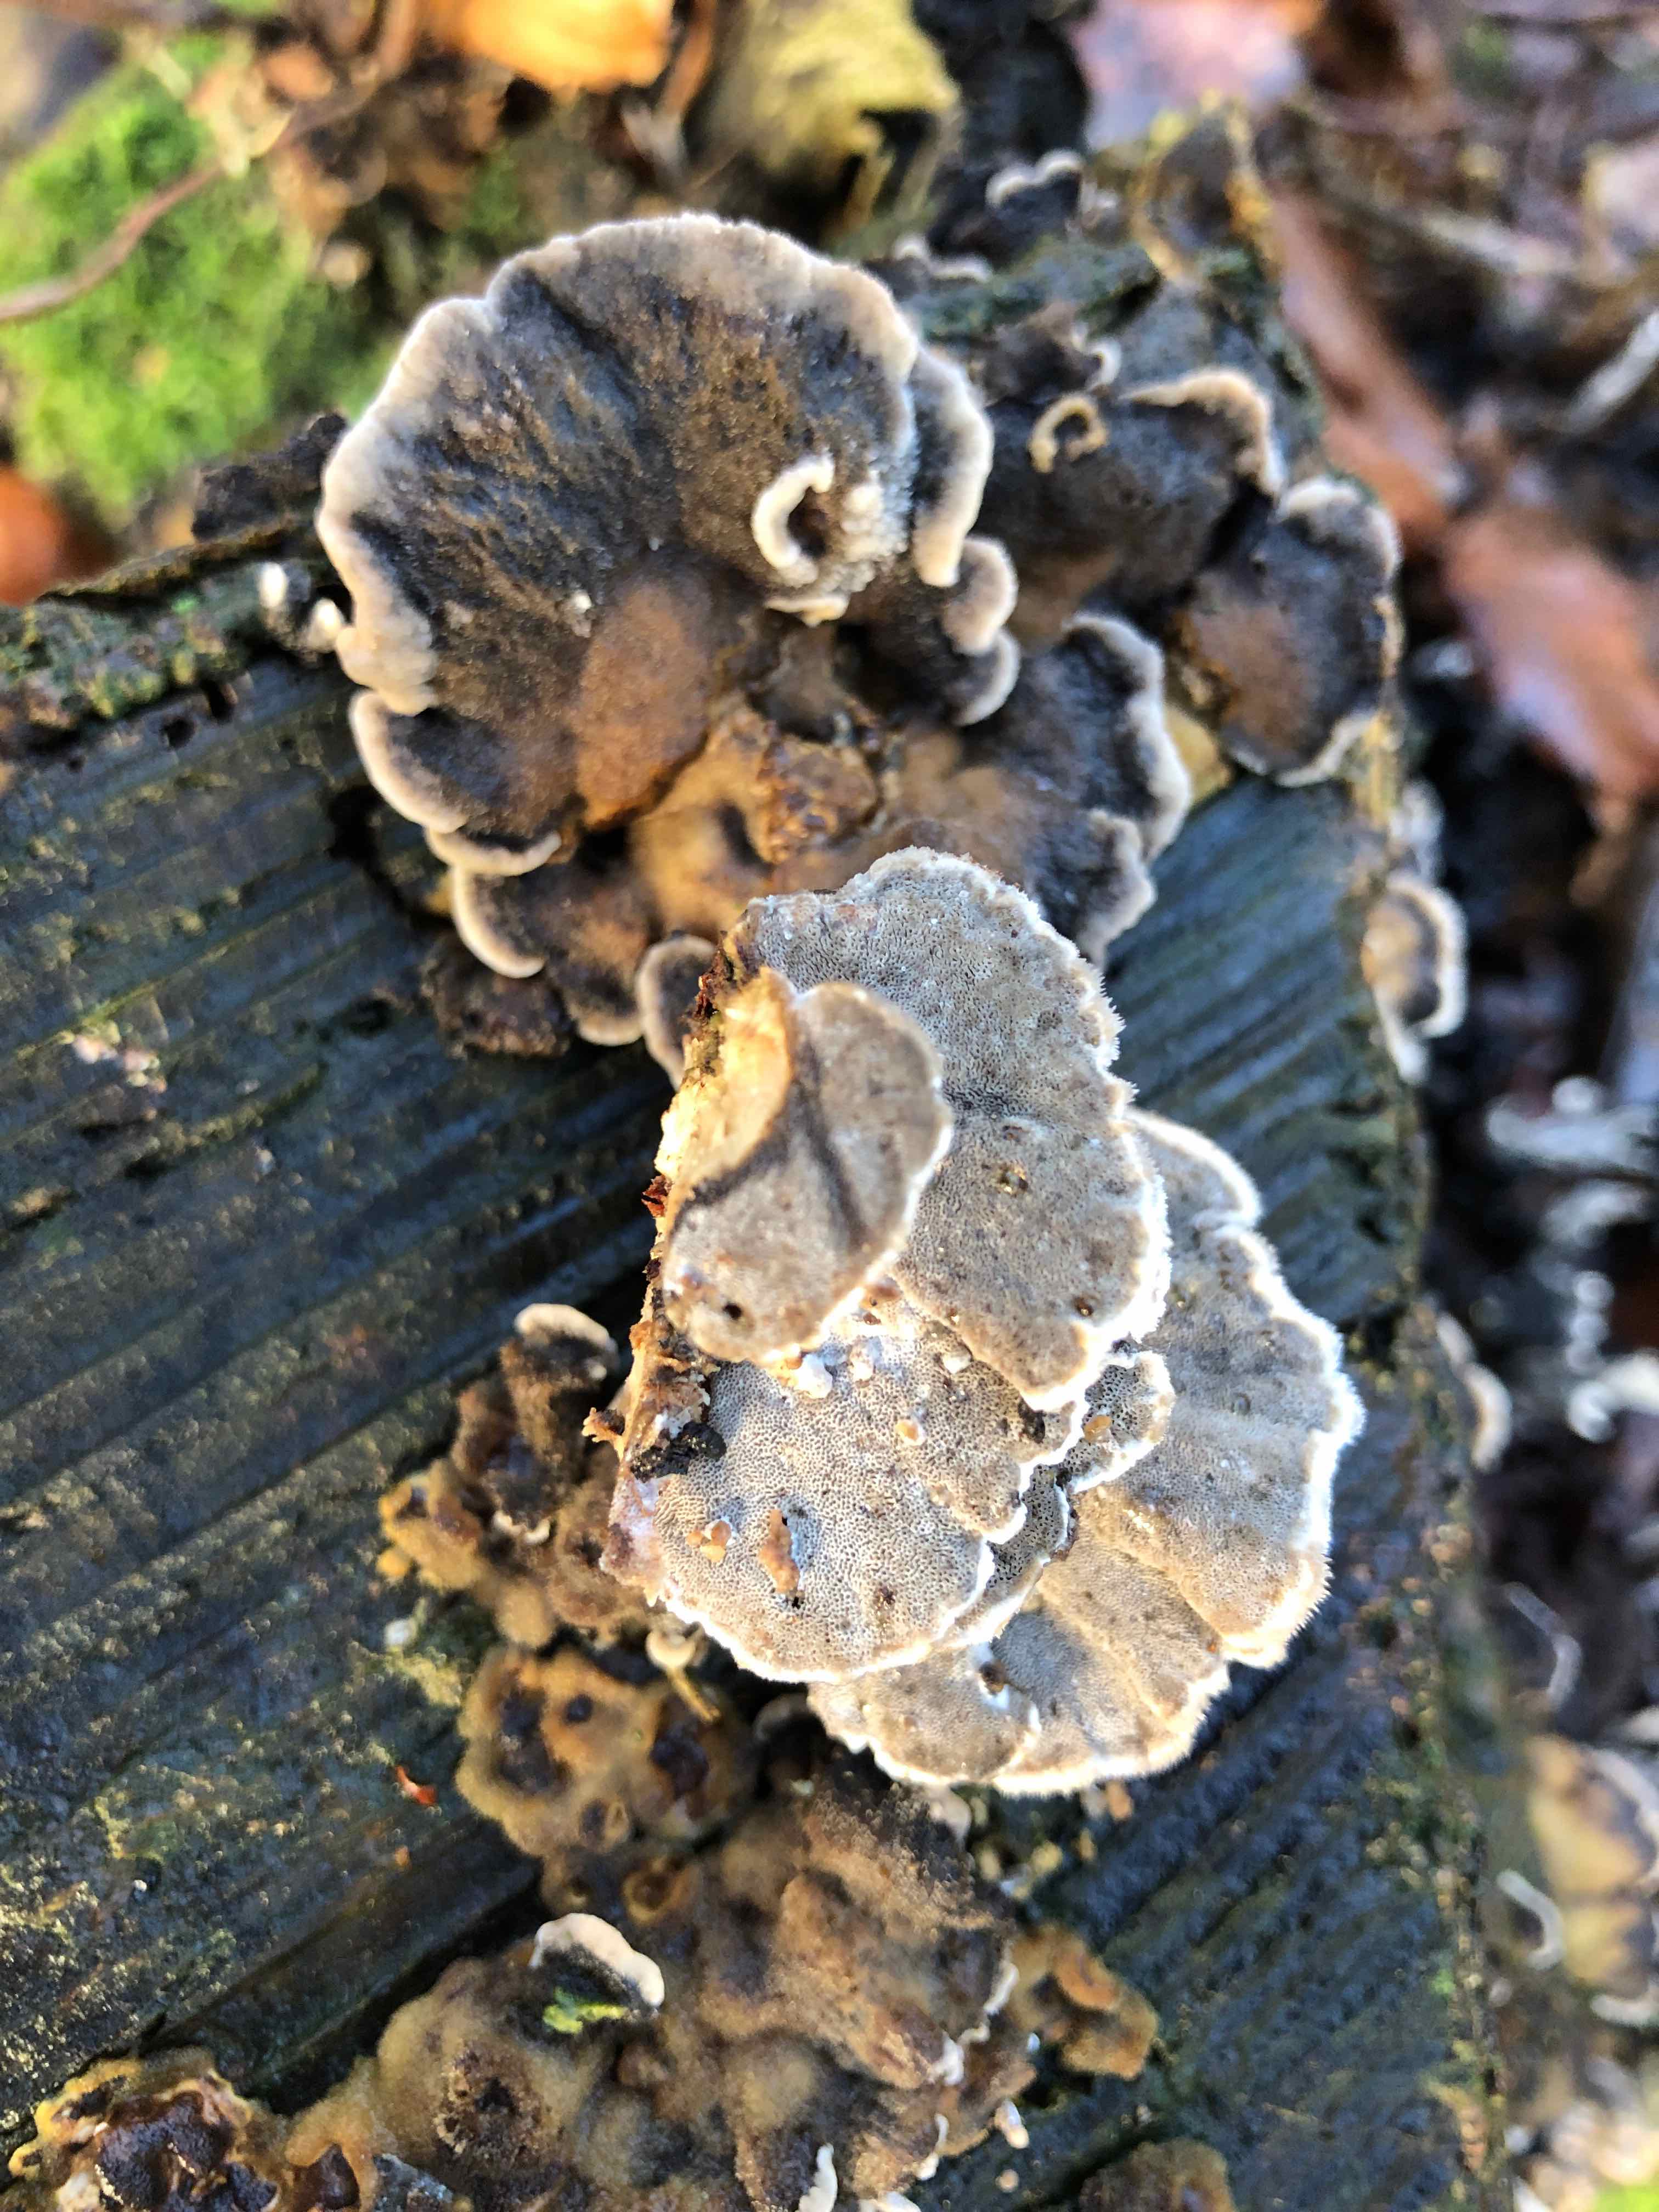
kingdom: Fungi
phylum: Basidiomycota
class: Agaricomycetes
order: Polyporales
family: Phanerochaetaceae
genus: Bjerkandera
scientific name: Bjerkandera adusta
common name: sveden sodporesvamp
